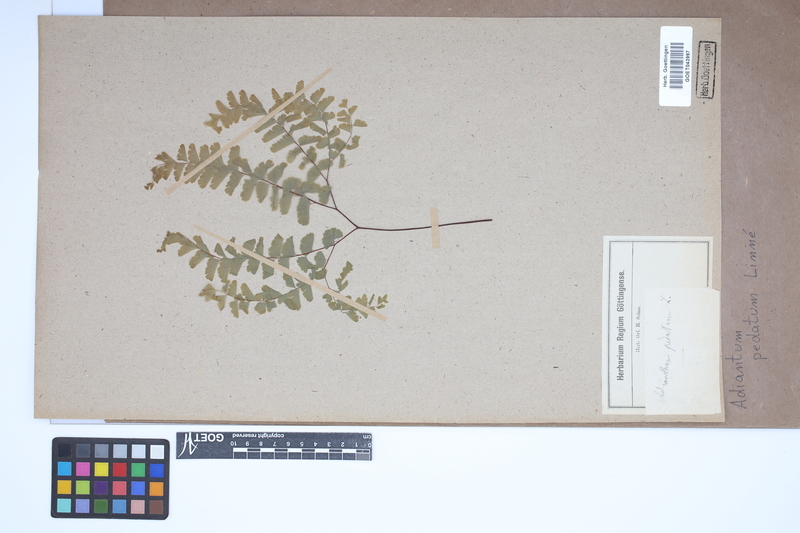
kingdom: Plantae
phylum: Tracheophyta
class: Polypodiopsida
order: Polypodiales
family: Pteridaceae
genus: Adiantum
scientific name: Adiantum pedatum
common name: Five-finger fern
